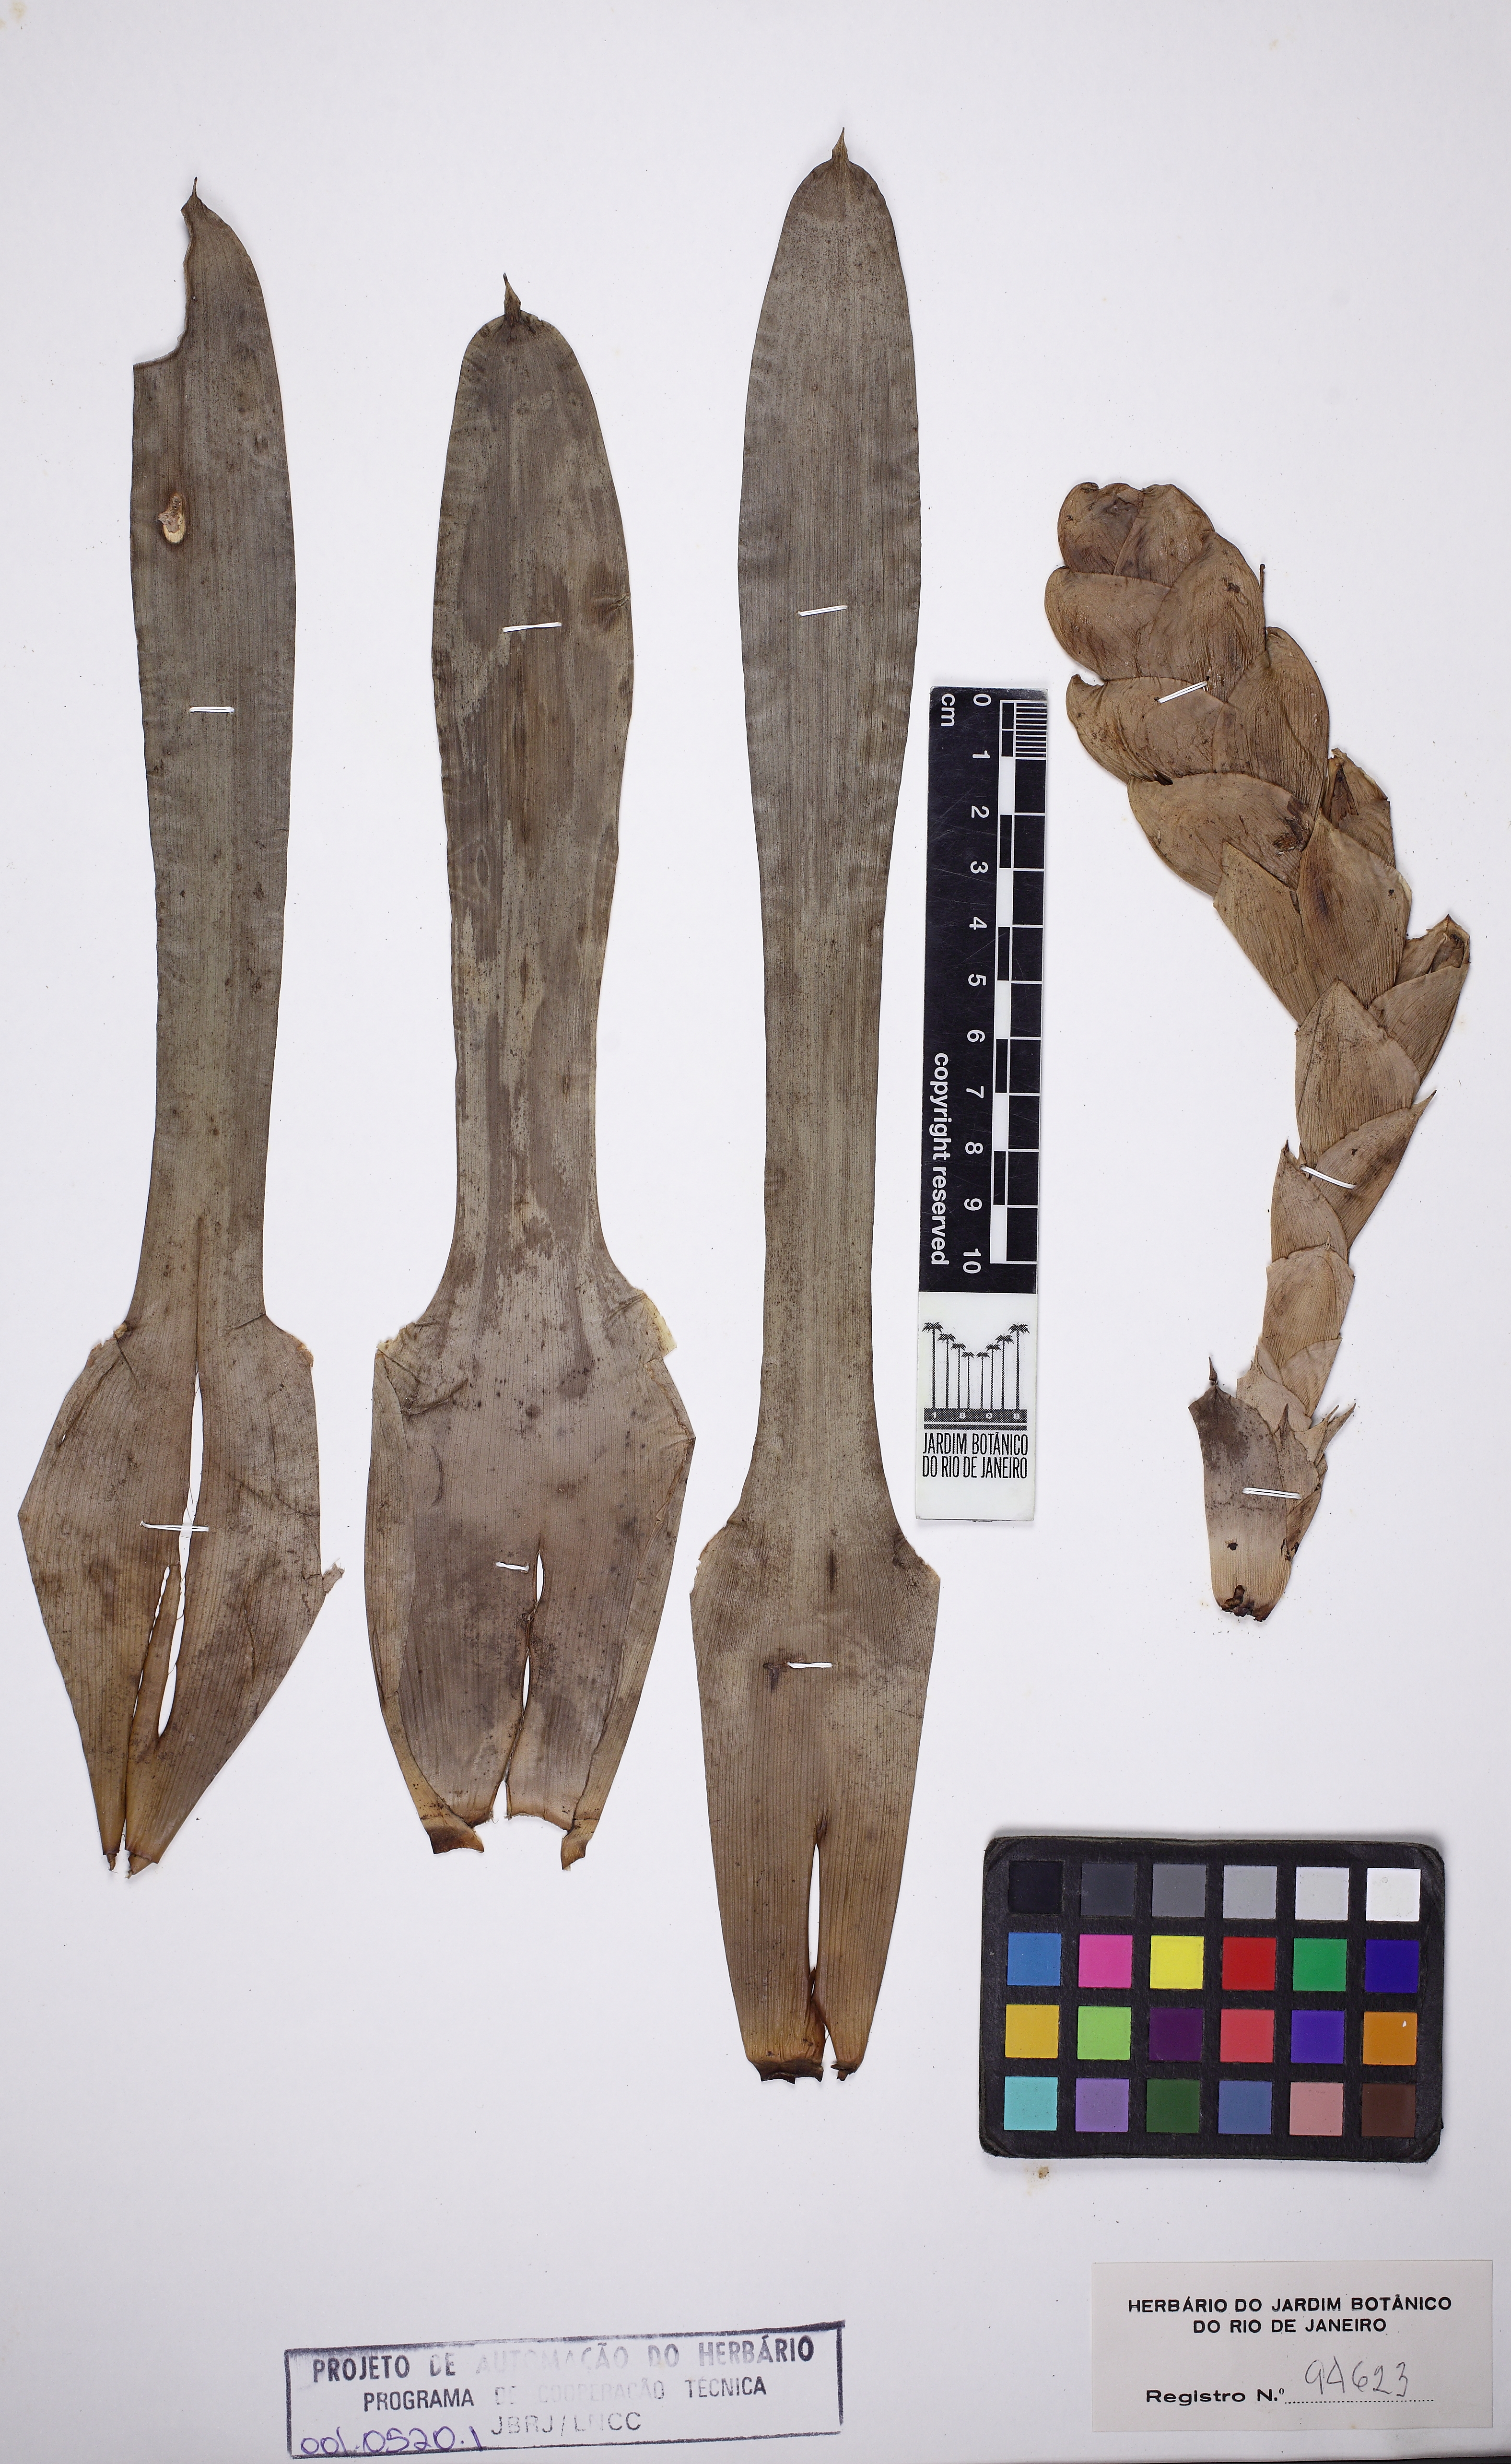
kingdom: Plantae
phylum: Tracheophyta
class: Liliopsida
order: Poales
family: Bromeliaceae
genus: Vriesea
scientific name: Vriesea heterostachys
